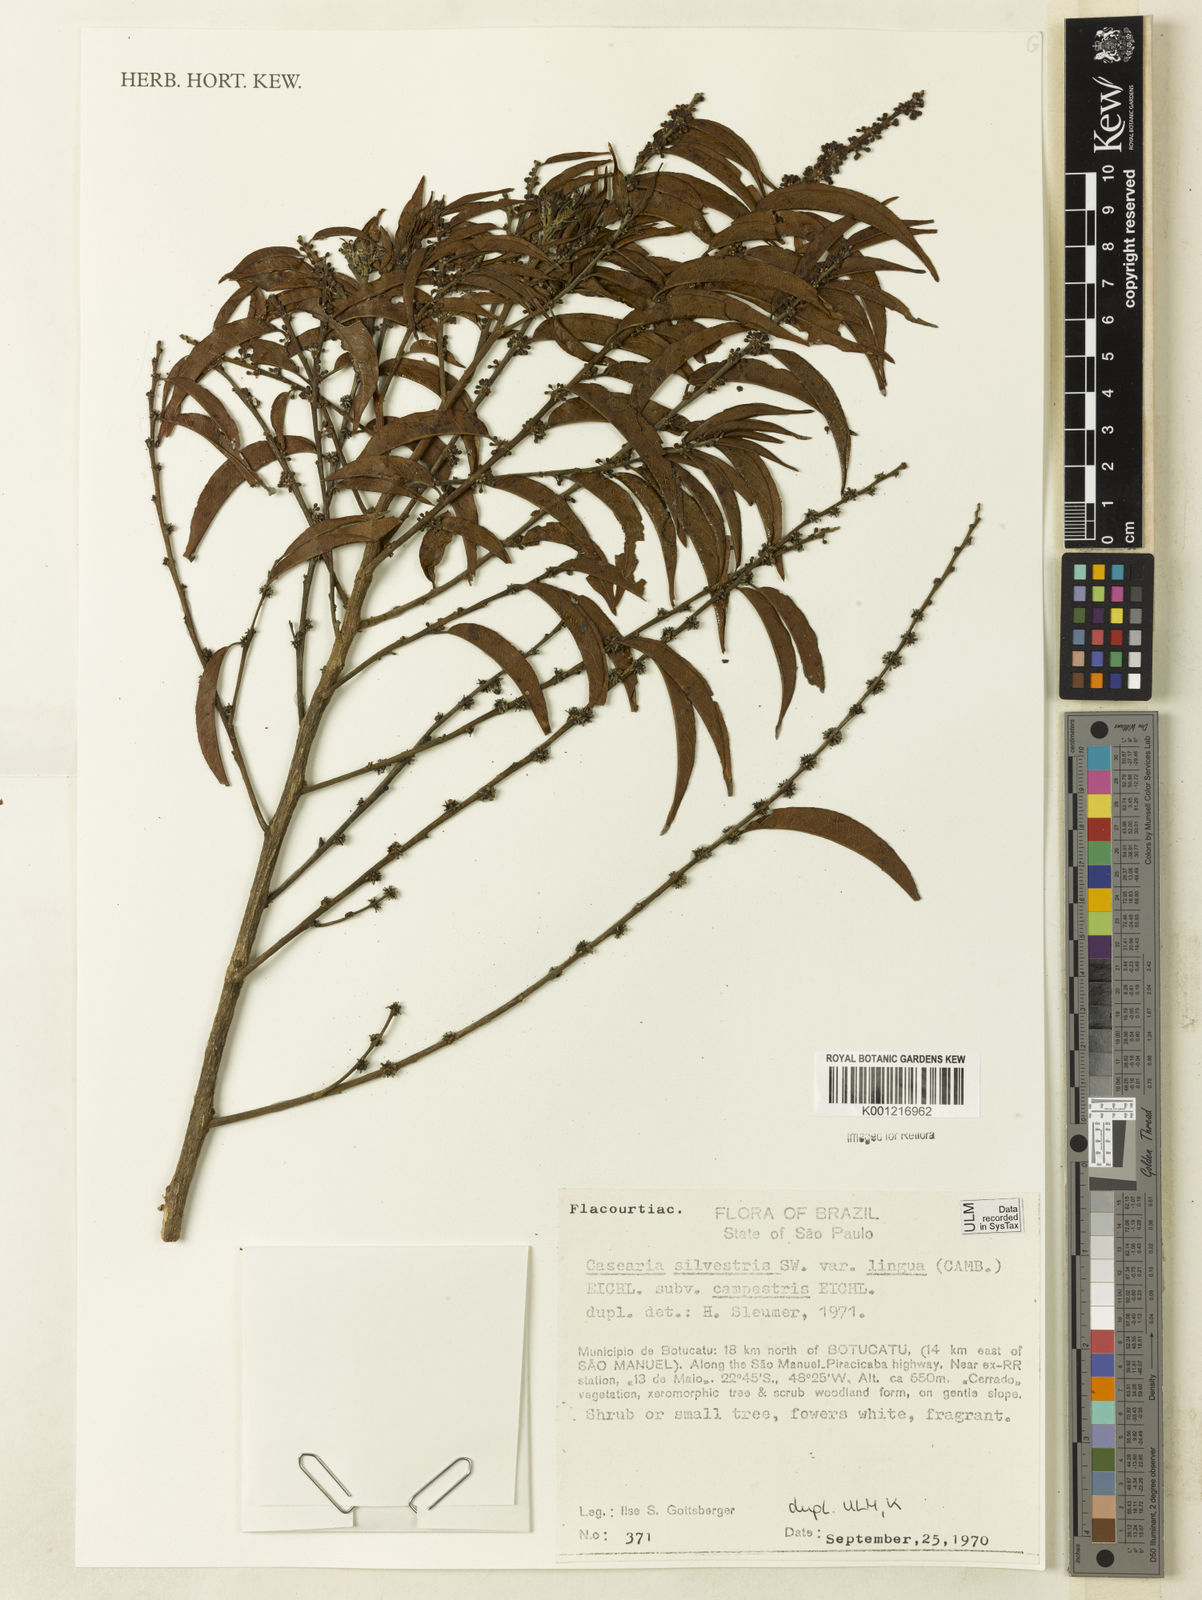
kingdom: Plantae
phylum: Tracheophyta
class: Magnoliopsida
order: Malpighiales
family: Salicaceae
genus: Casearia
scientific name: Casearia sylvestris
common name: Wild sage
